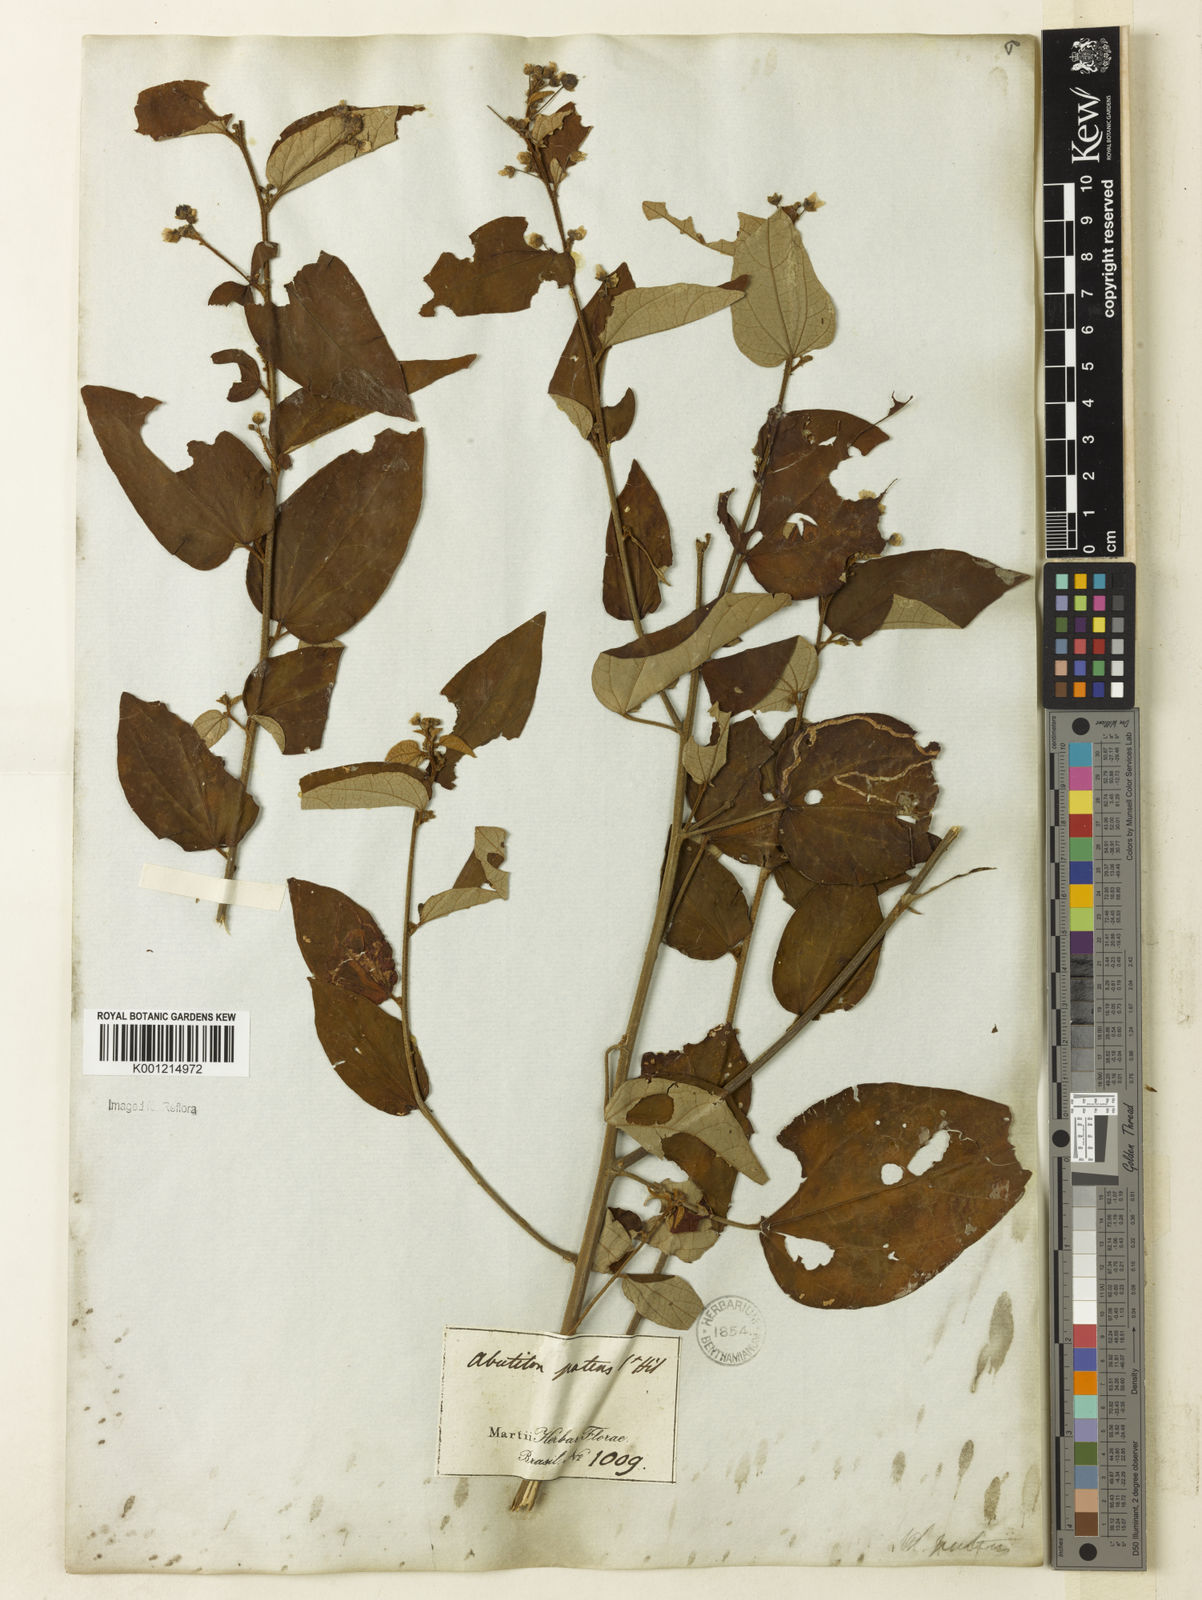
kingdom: Plantae
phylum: Tracheophyta
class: Magnoliopsida
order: Malvales
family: Malvaceae
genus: Wissadula
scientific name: Wissadula excelsior
